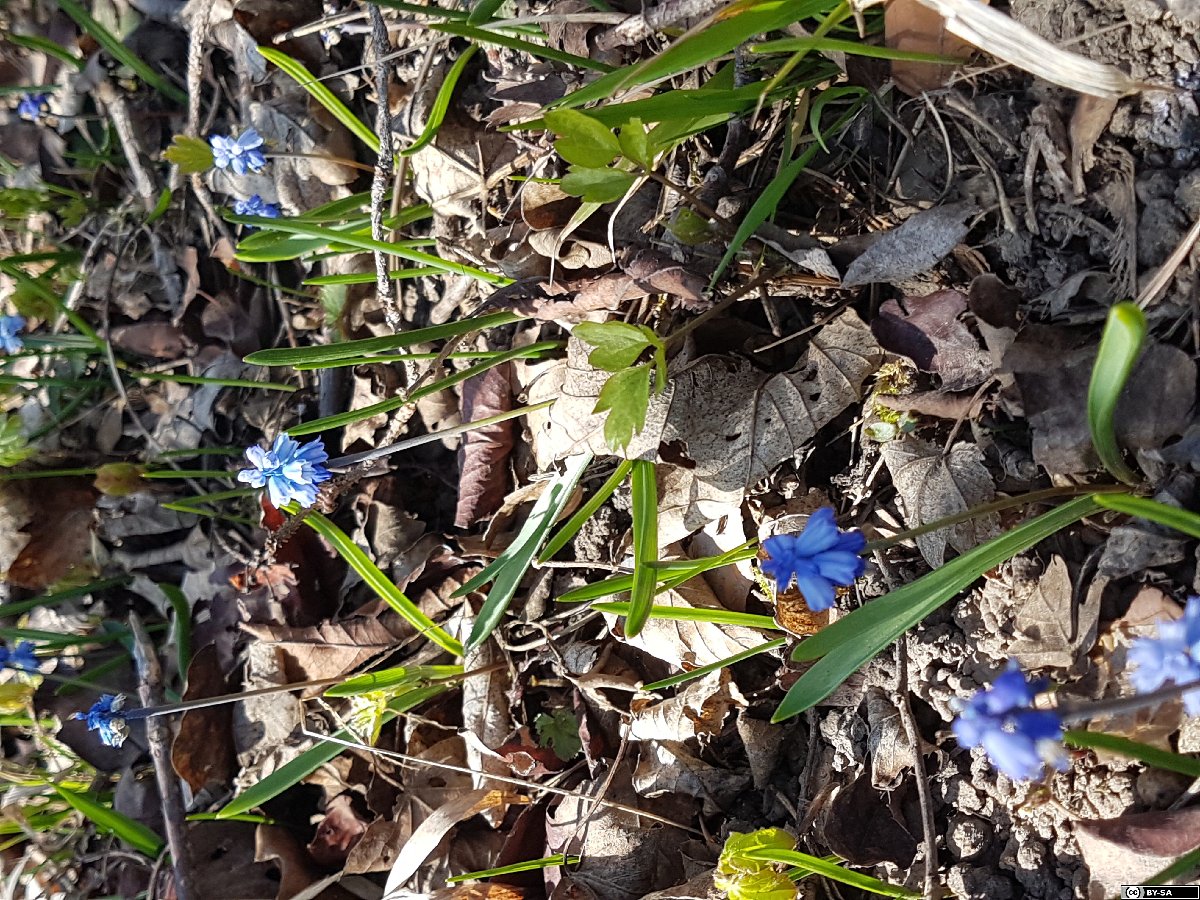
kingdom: Plantae
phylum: Tracheophyta
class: Liliopsida
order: Asparagales
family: Asparagaceae
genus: Muscari
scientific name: Muscari azureum
